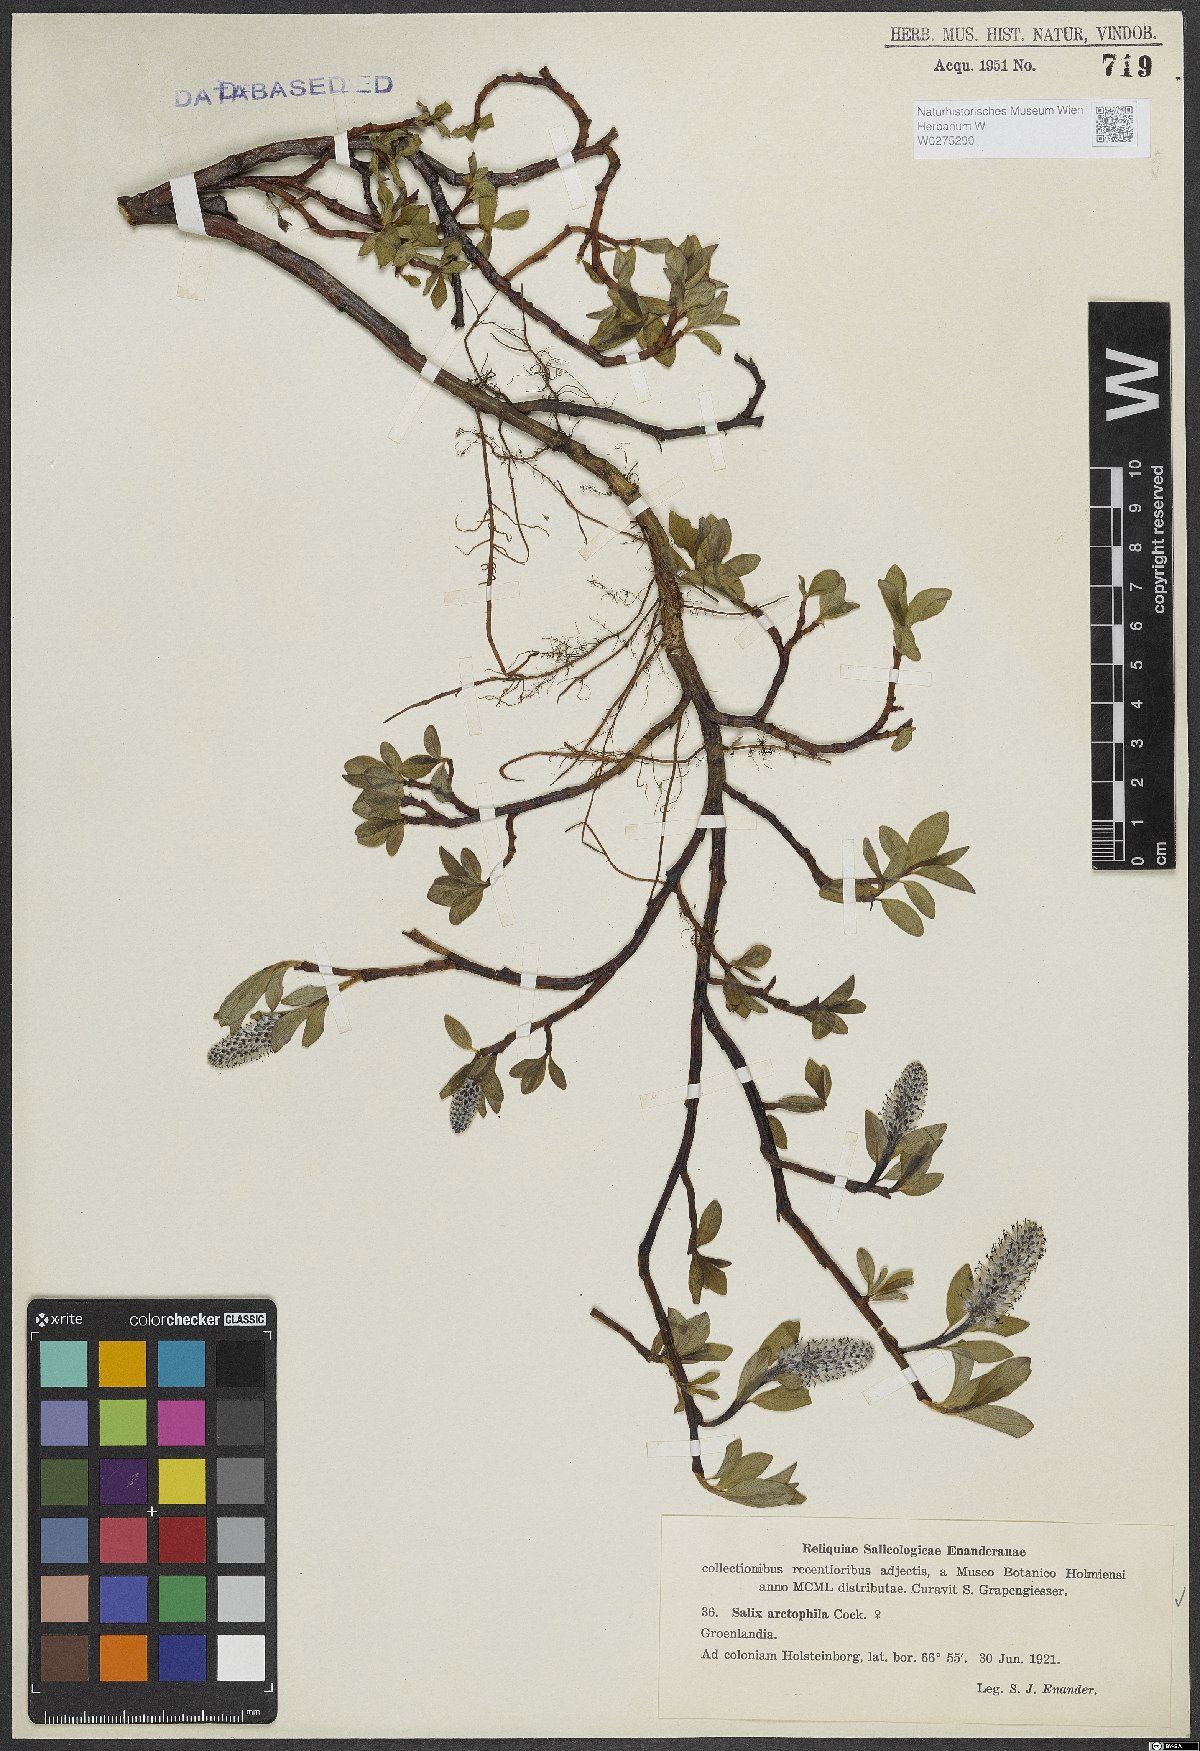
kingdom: Plantae
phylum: Tracheophyta
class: Magnoliopsida
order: Malpighiales
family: Salicaceae
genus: Salix
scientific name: Salix arctophila
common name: Greenland willow
